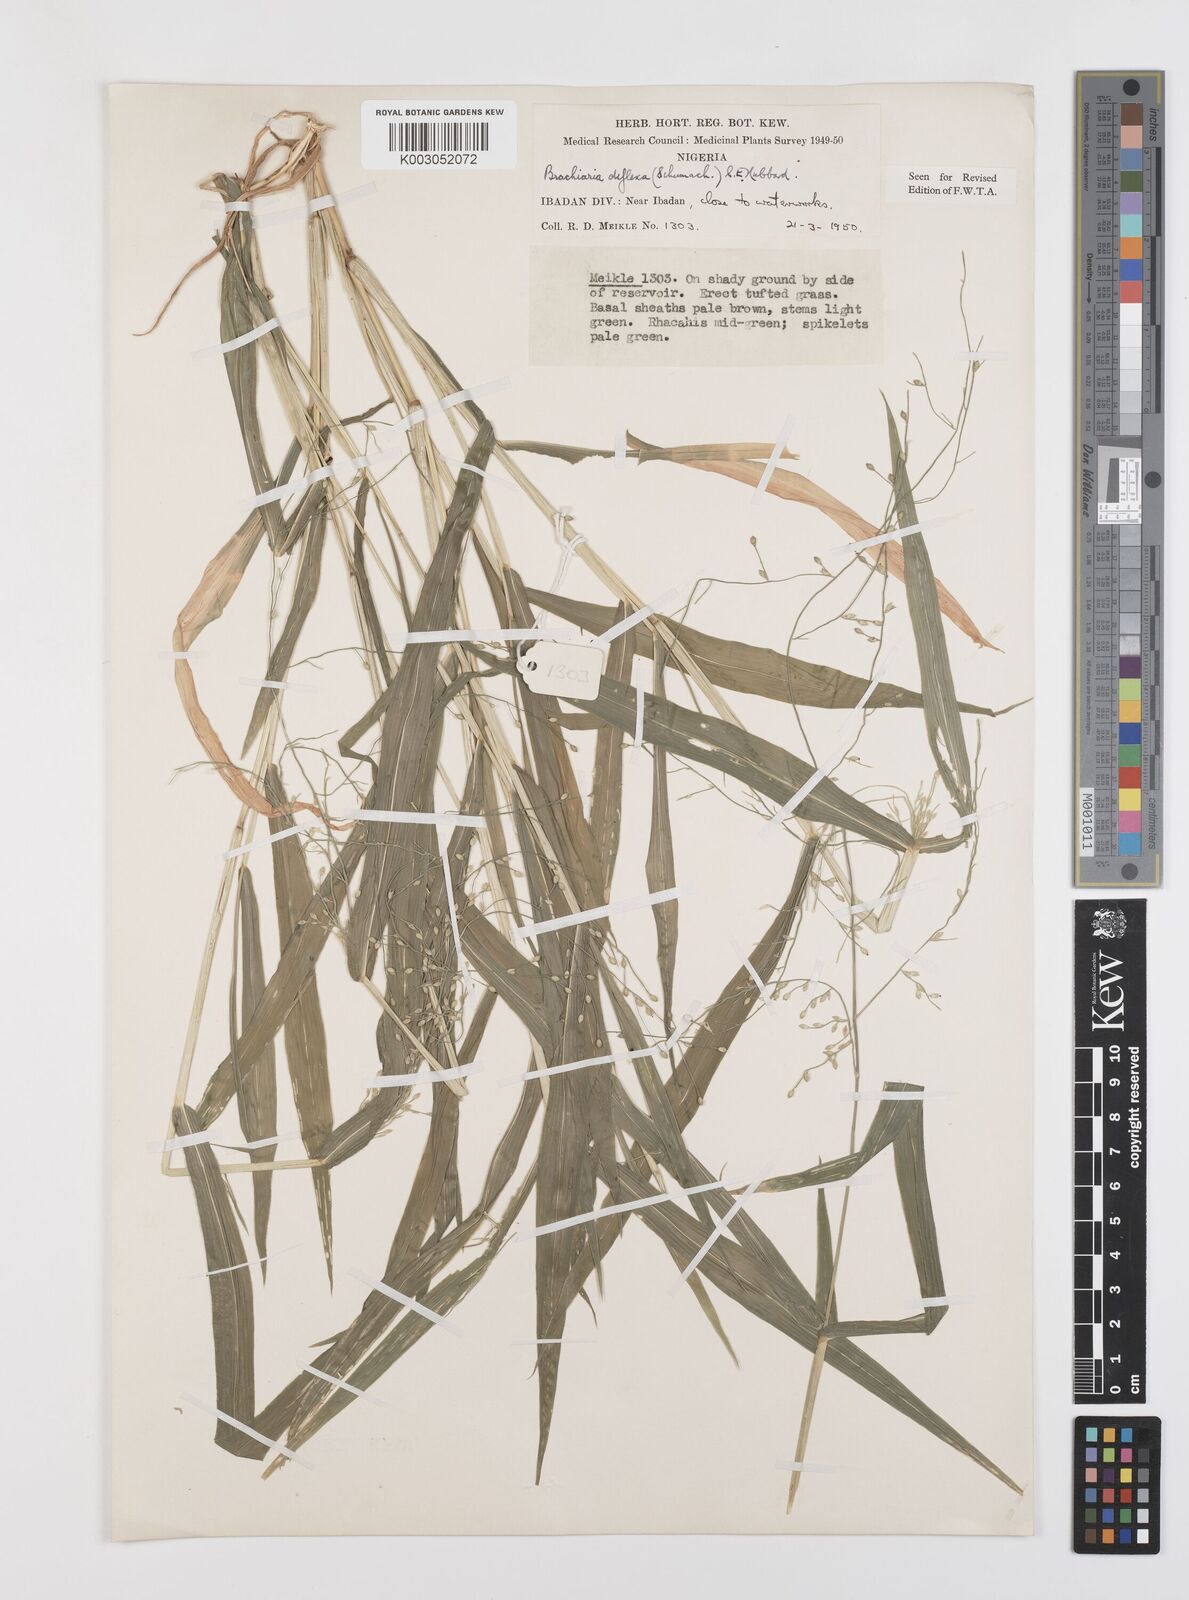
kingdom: Plantae
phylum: Tracheophyta
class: Liliopsida
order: Poales
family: Poaceae
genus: Urochloa
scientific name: Urochloa deflexa
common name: Guinea millet
